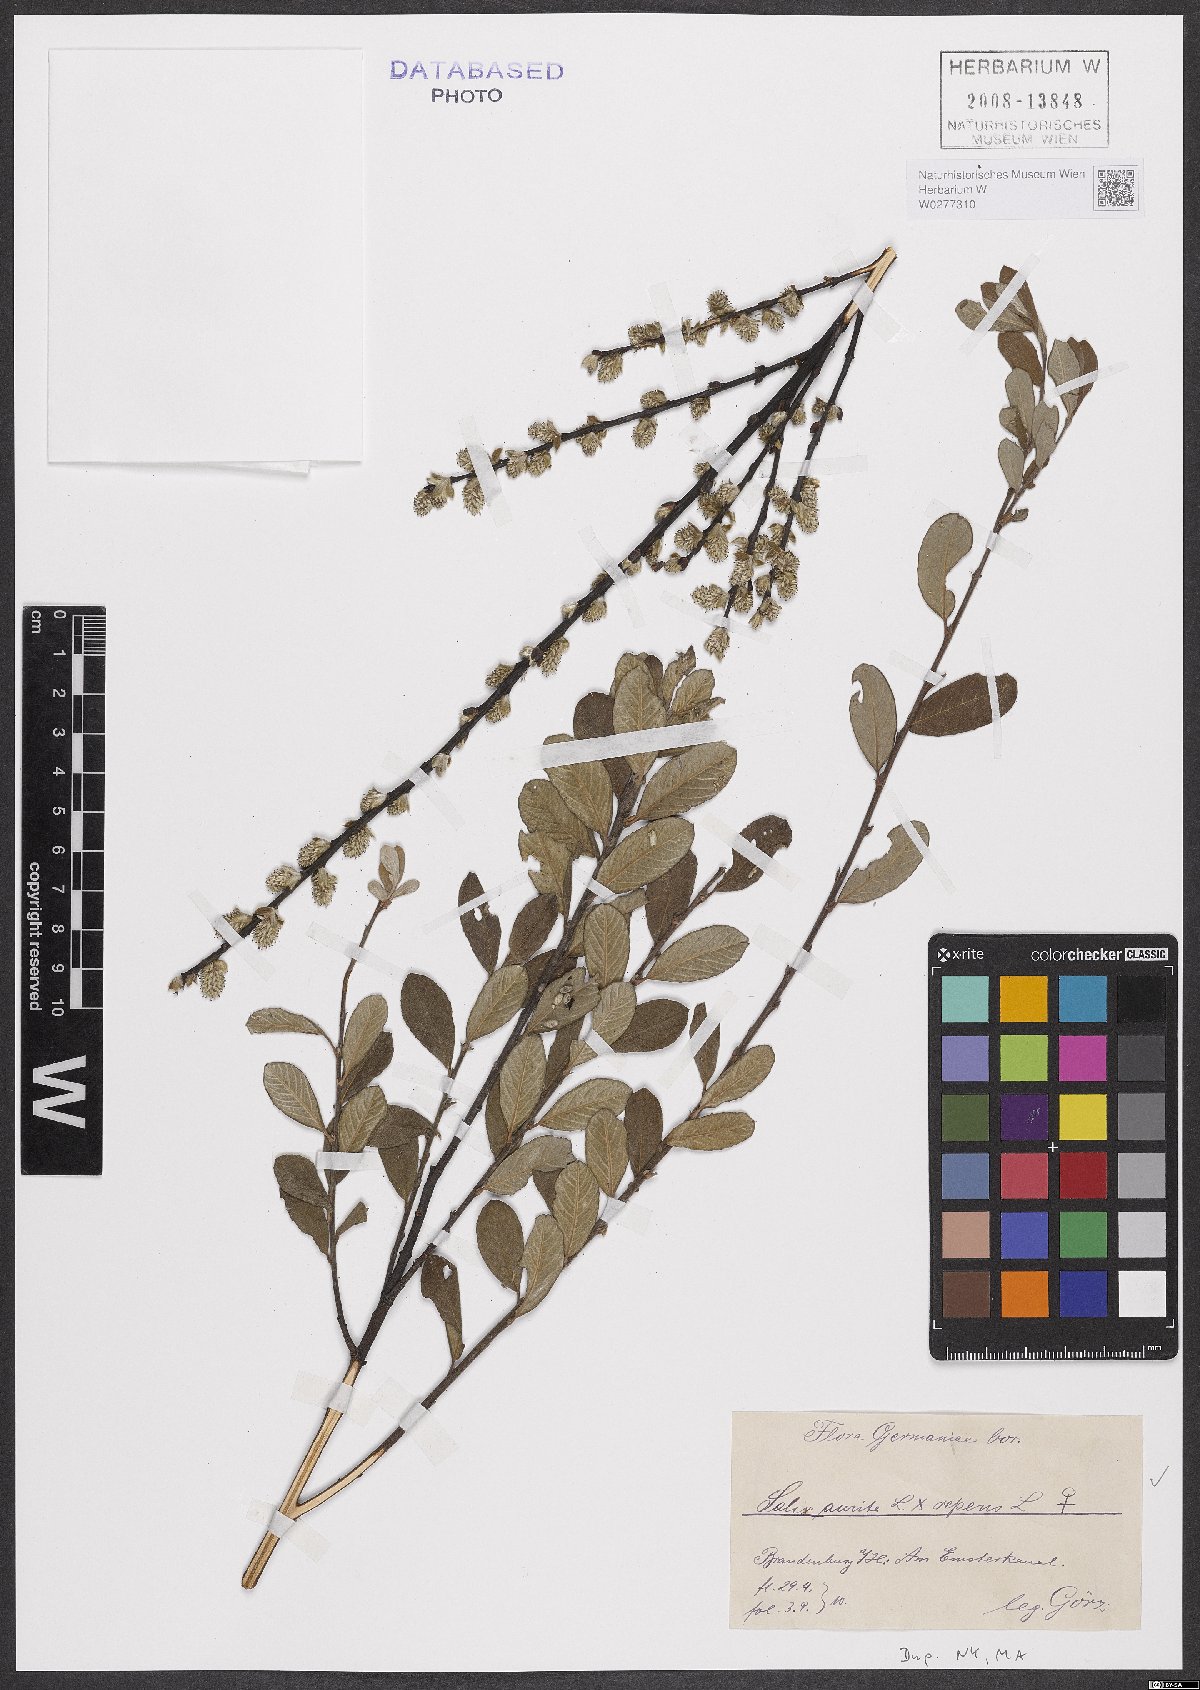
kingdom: Plantae
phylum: Tracheophyta
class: Magnoliopsida
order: Malpighiales
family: Salicaceae
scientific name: Salicaceae
